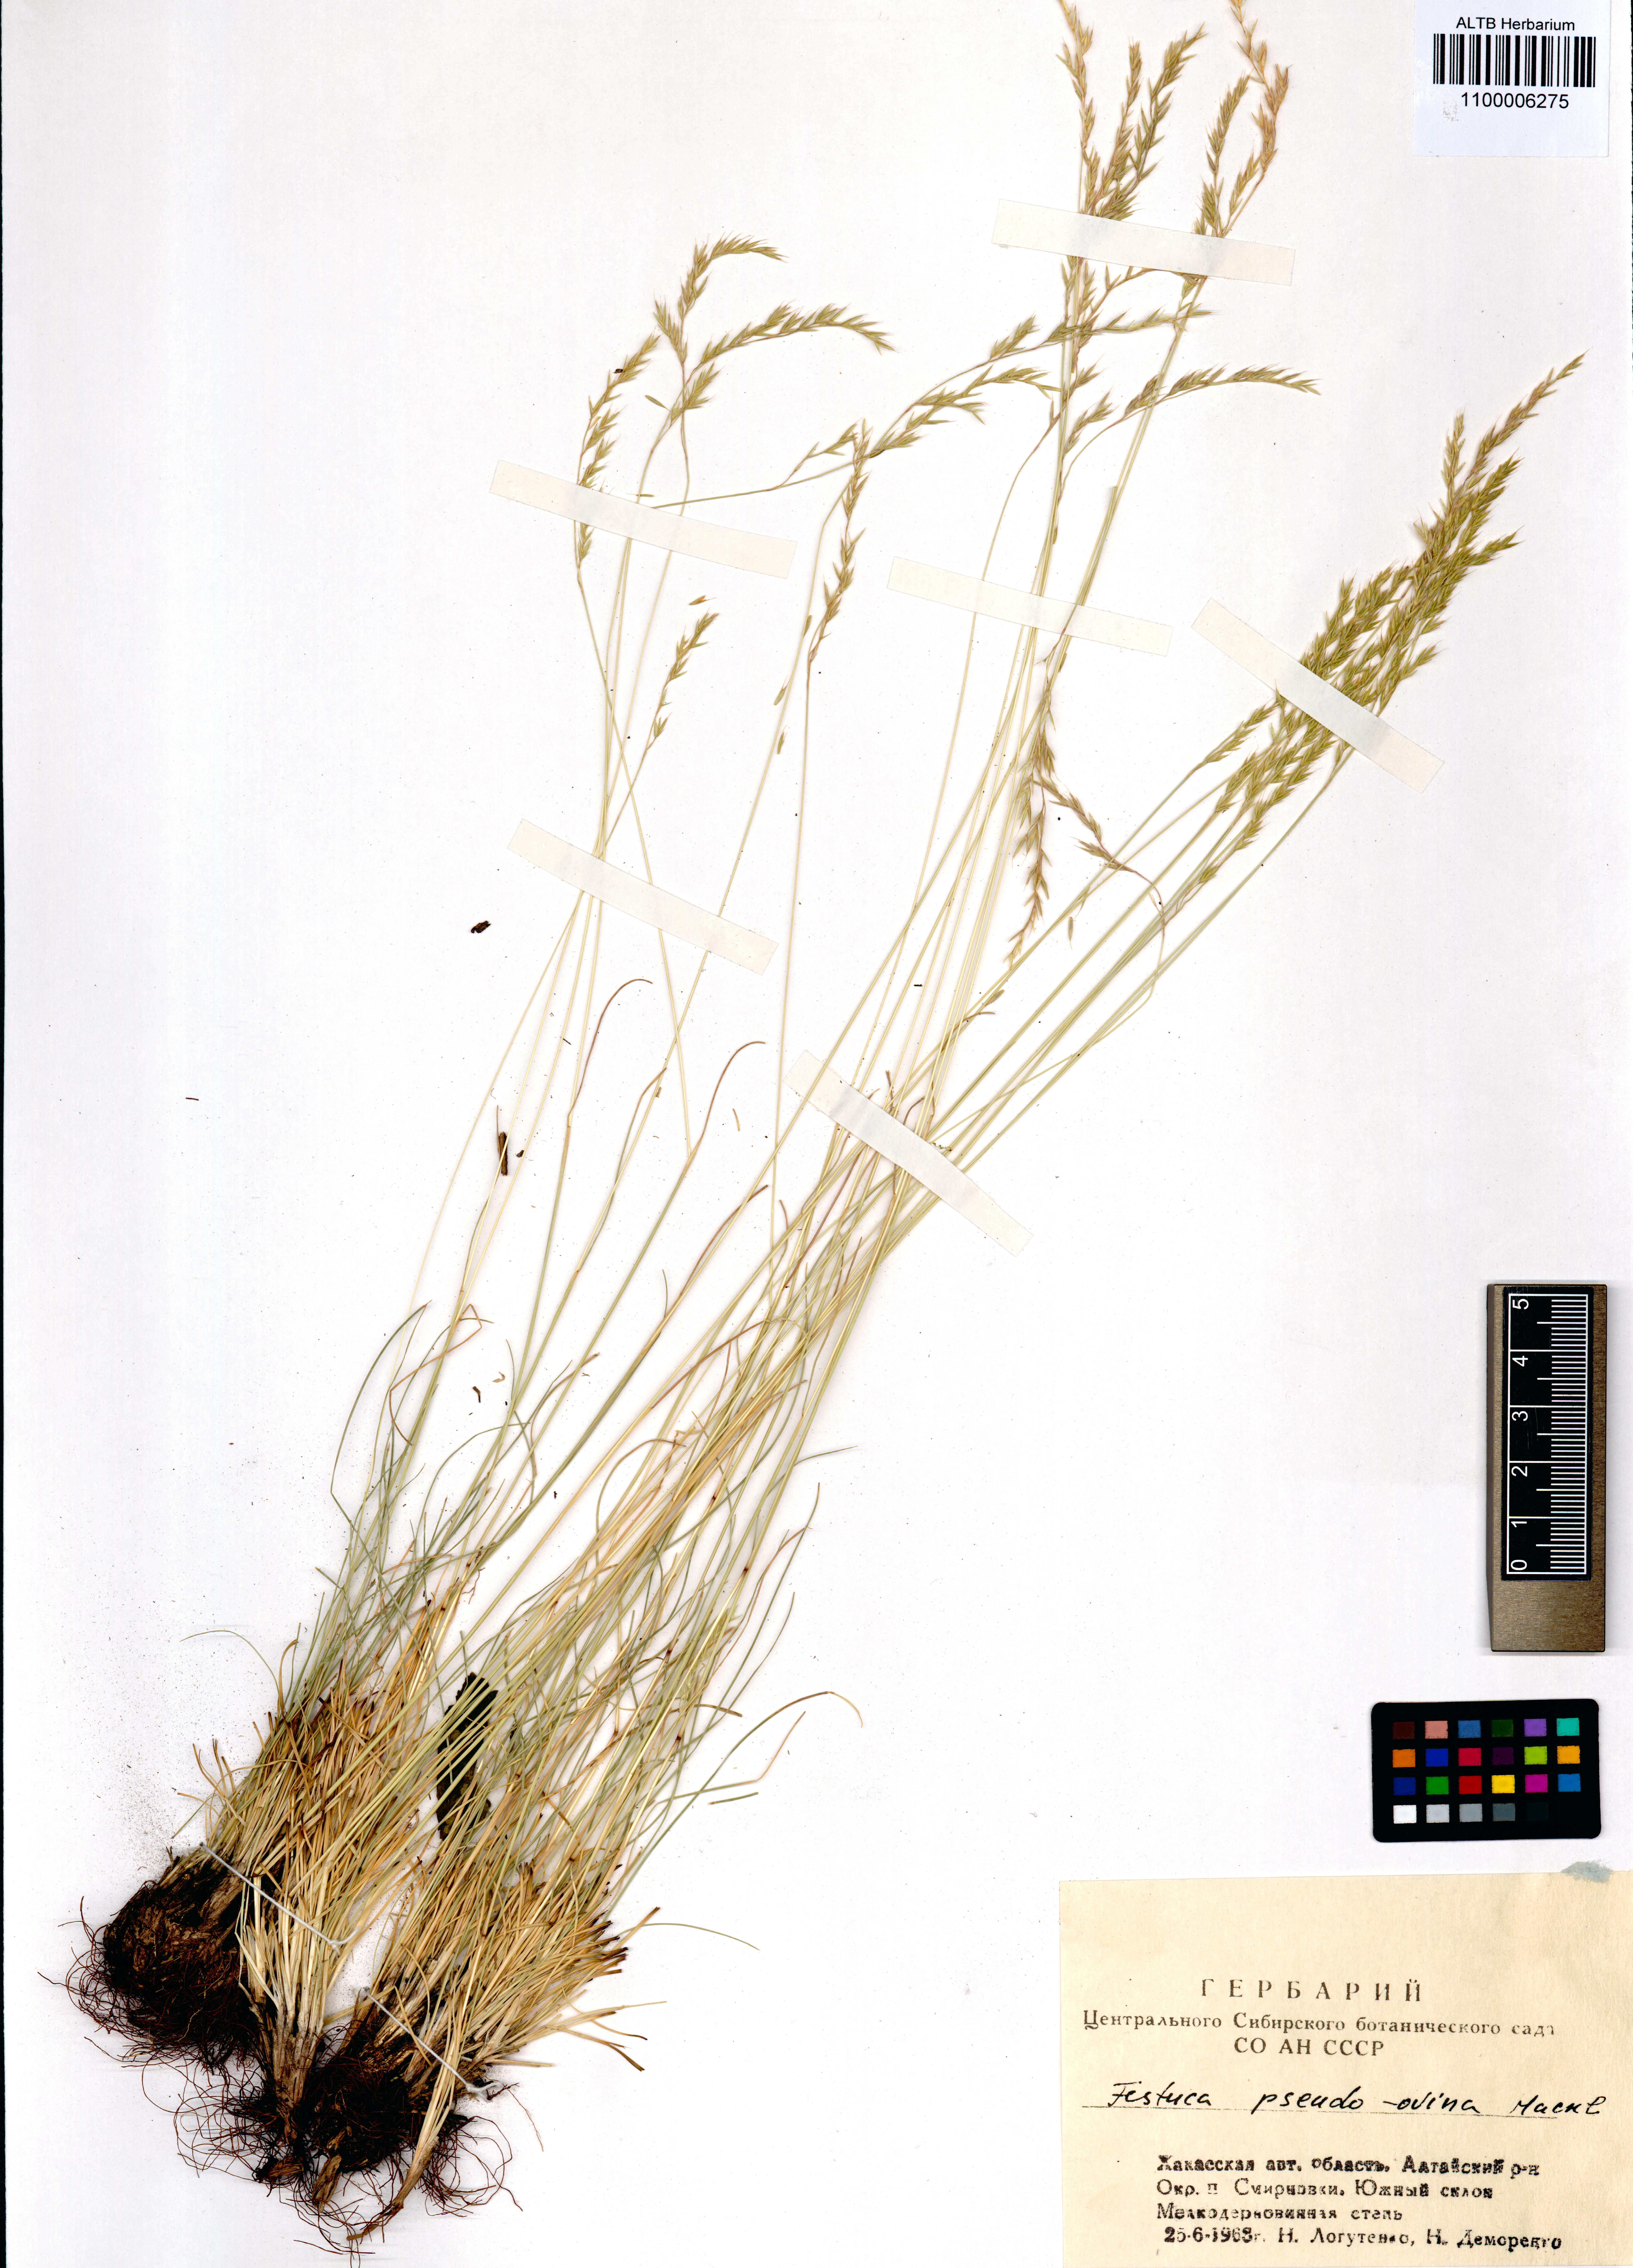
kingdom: Plantae
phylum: Tracheophyta
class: Liliopsida
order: Poales
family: Poaceae
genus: Festuca
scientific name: Festuca pulchra
